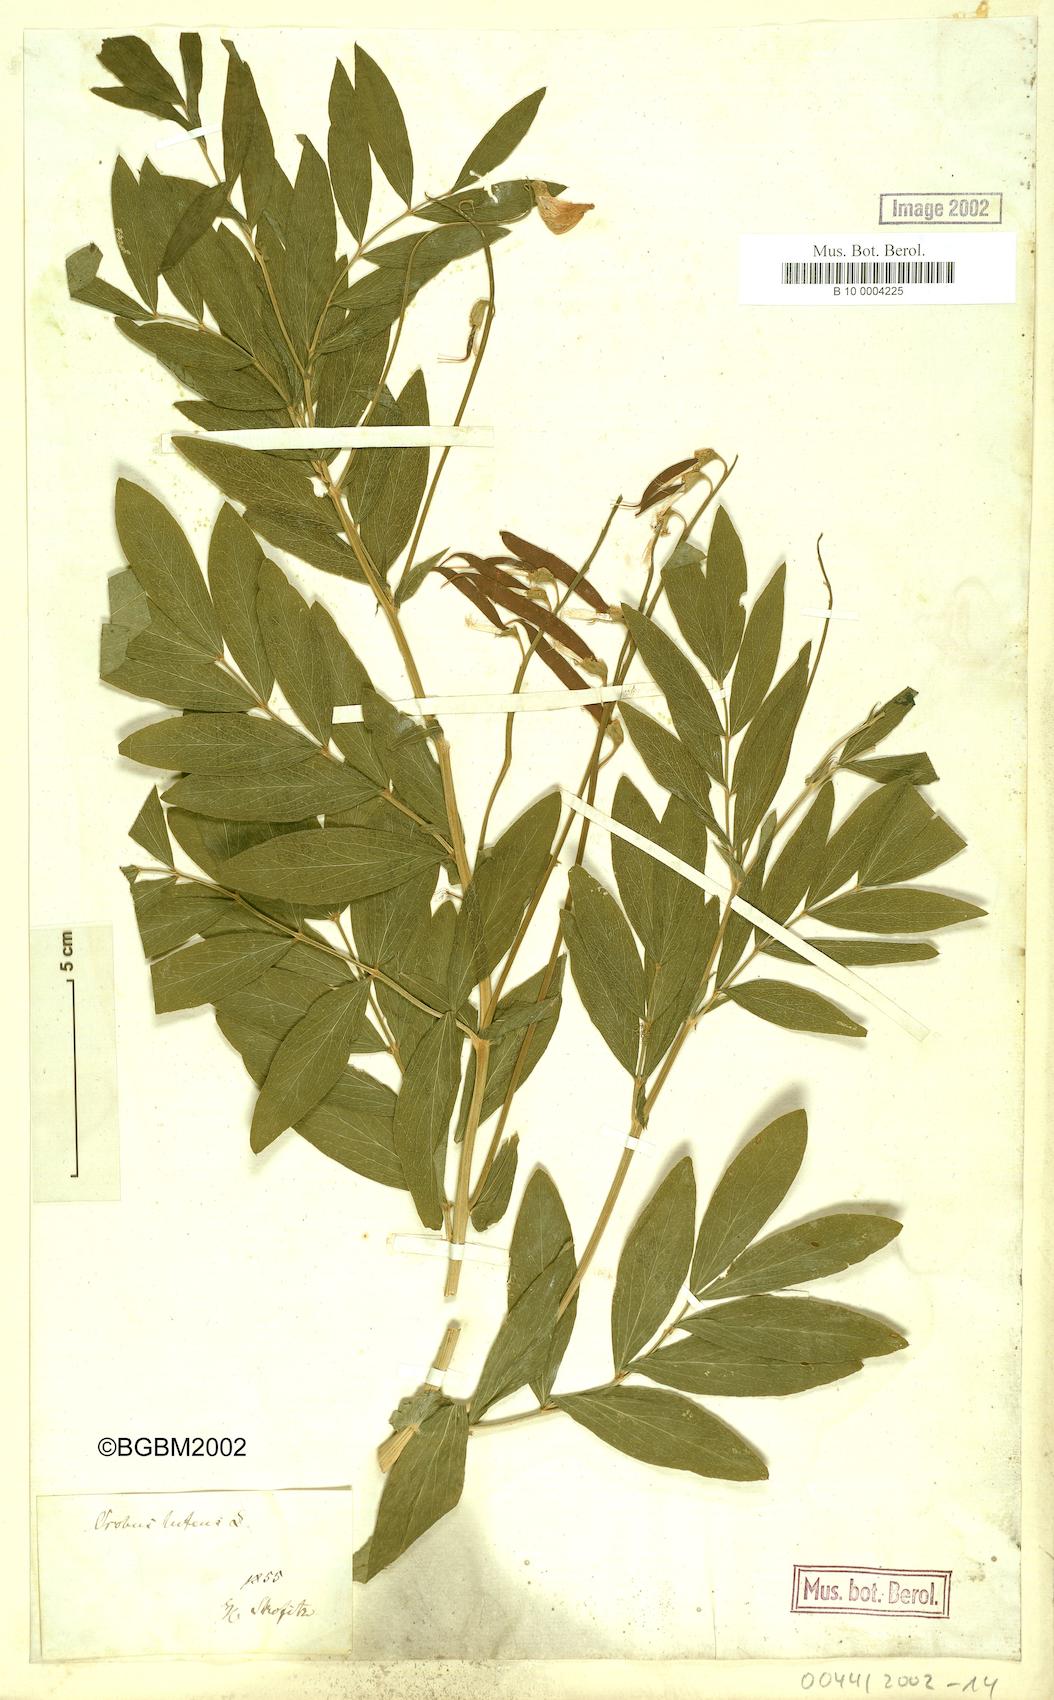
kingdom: Plantae
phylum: Tracheophyta
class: Magnoliopsida
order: Fabales
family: Fabaceae
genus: Lathyrus
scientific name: Lathyrus gmelinii
